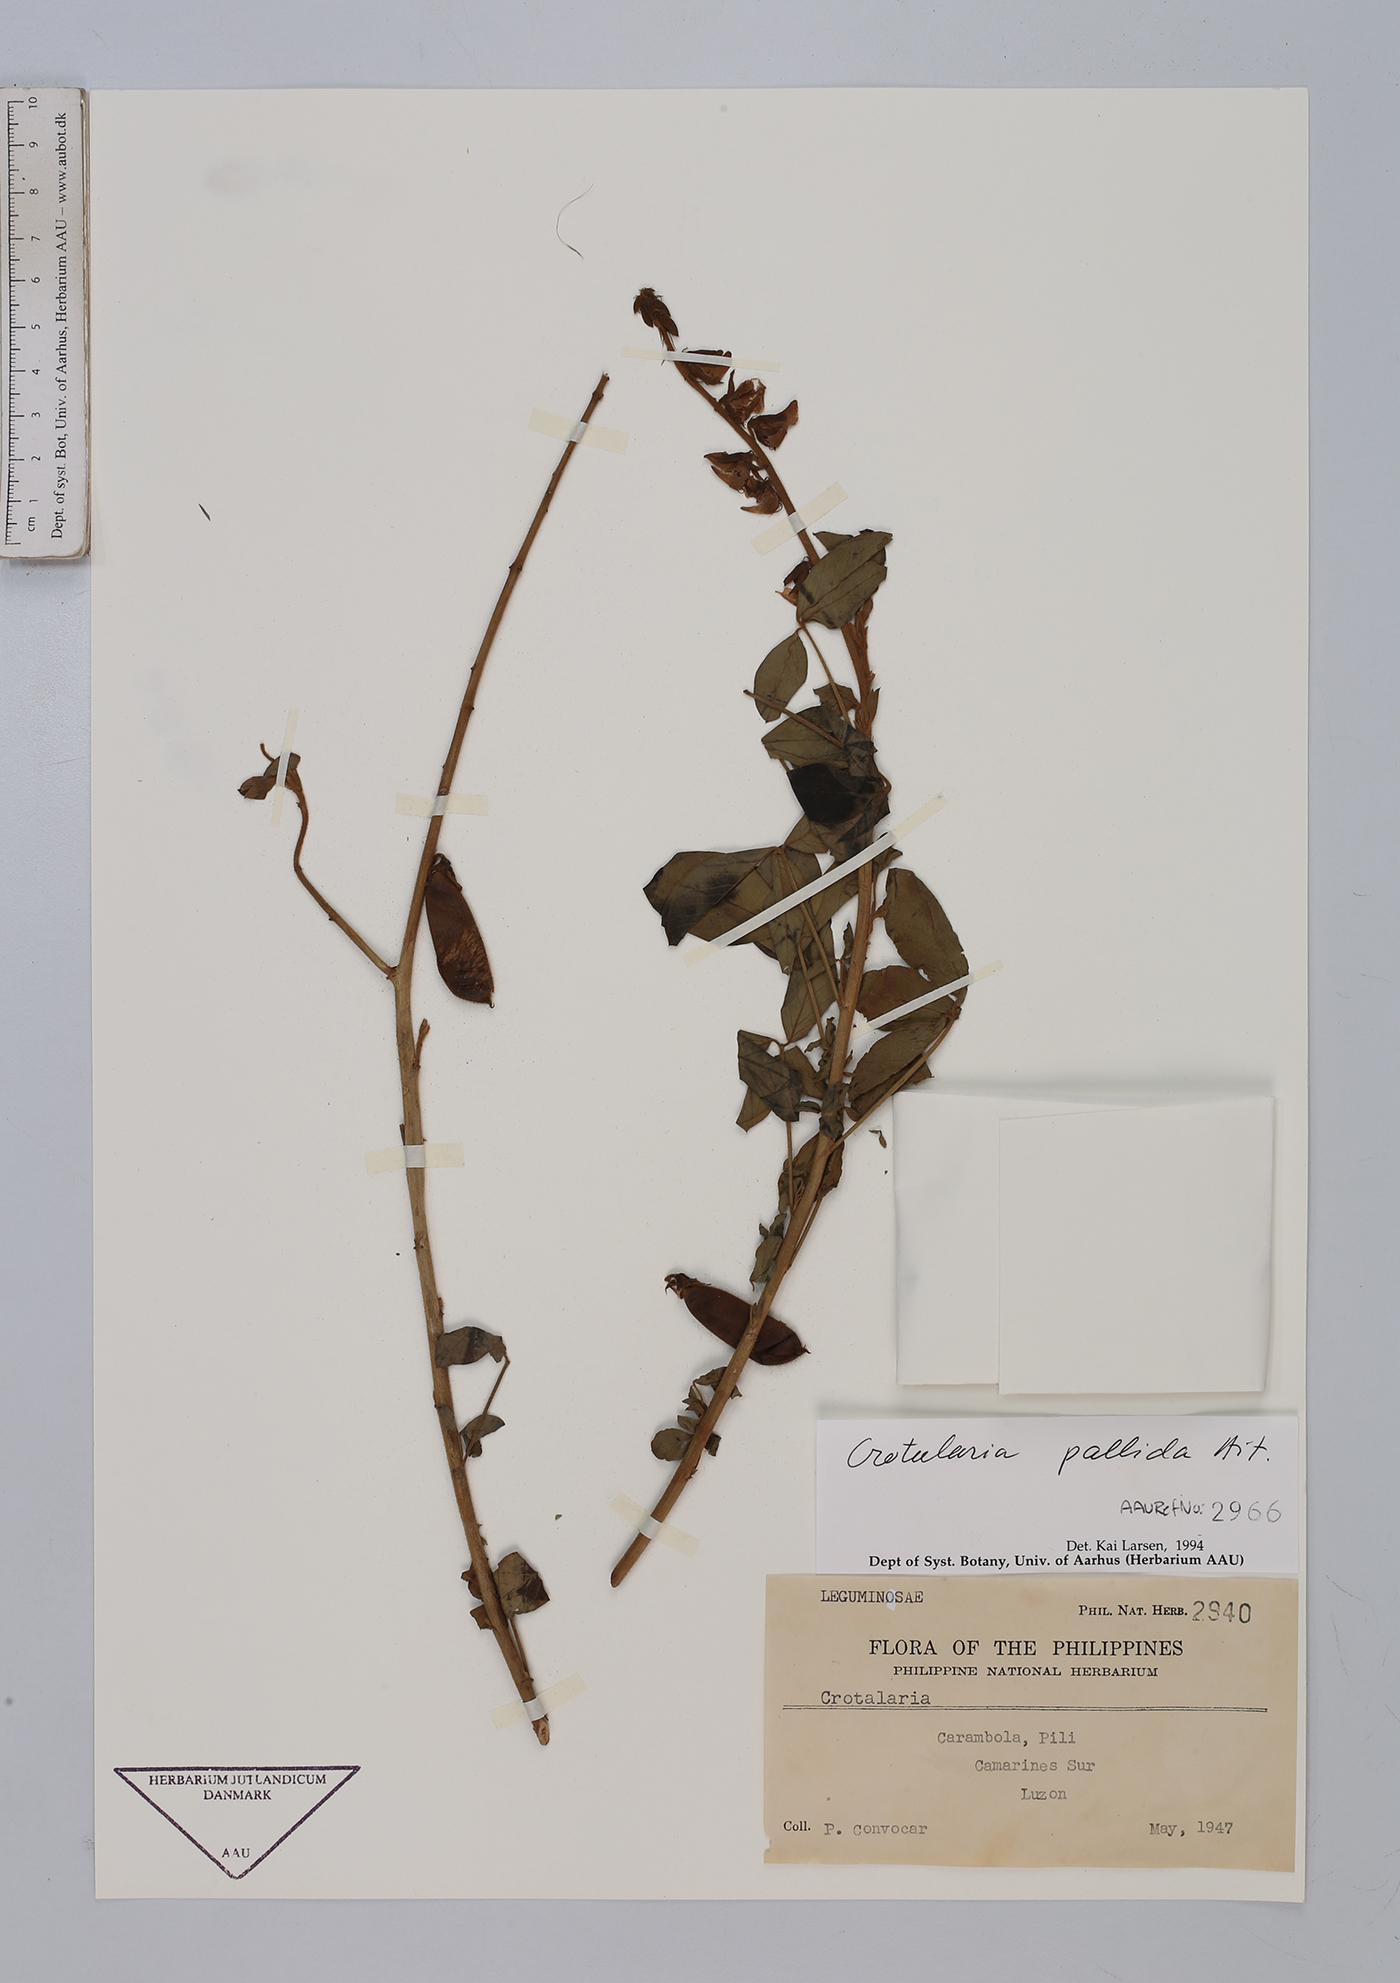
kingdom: Plantae
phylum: Tracheophyta
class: Magnoliopsida
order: Fabales
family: Fabaceae
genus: Crotalaria
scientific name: Crotalaria pallida
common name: Smooth rattlebox
